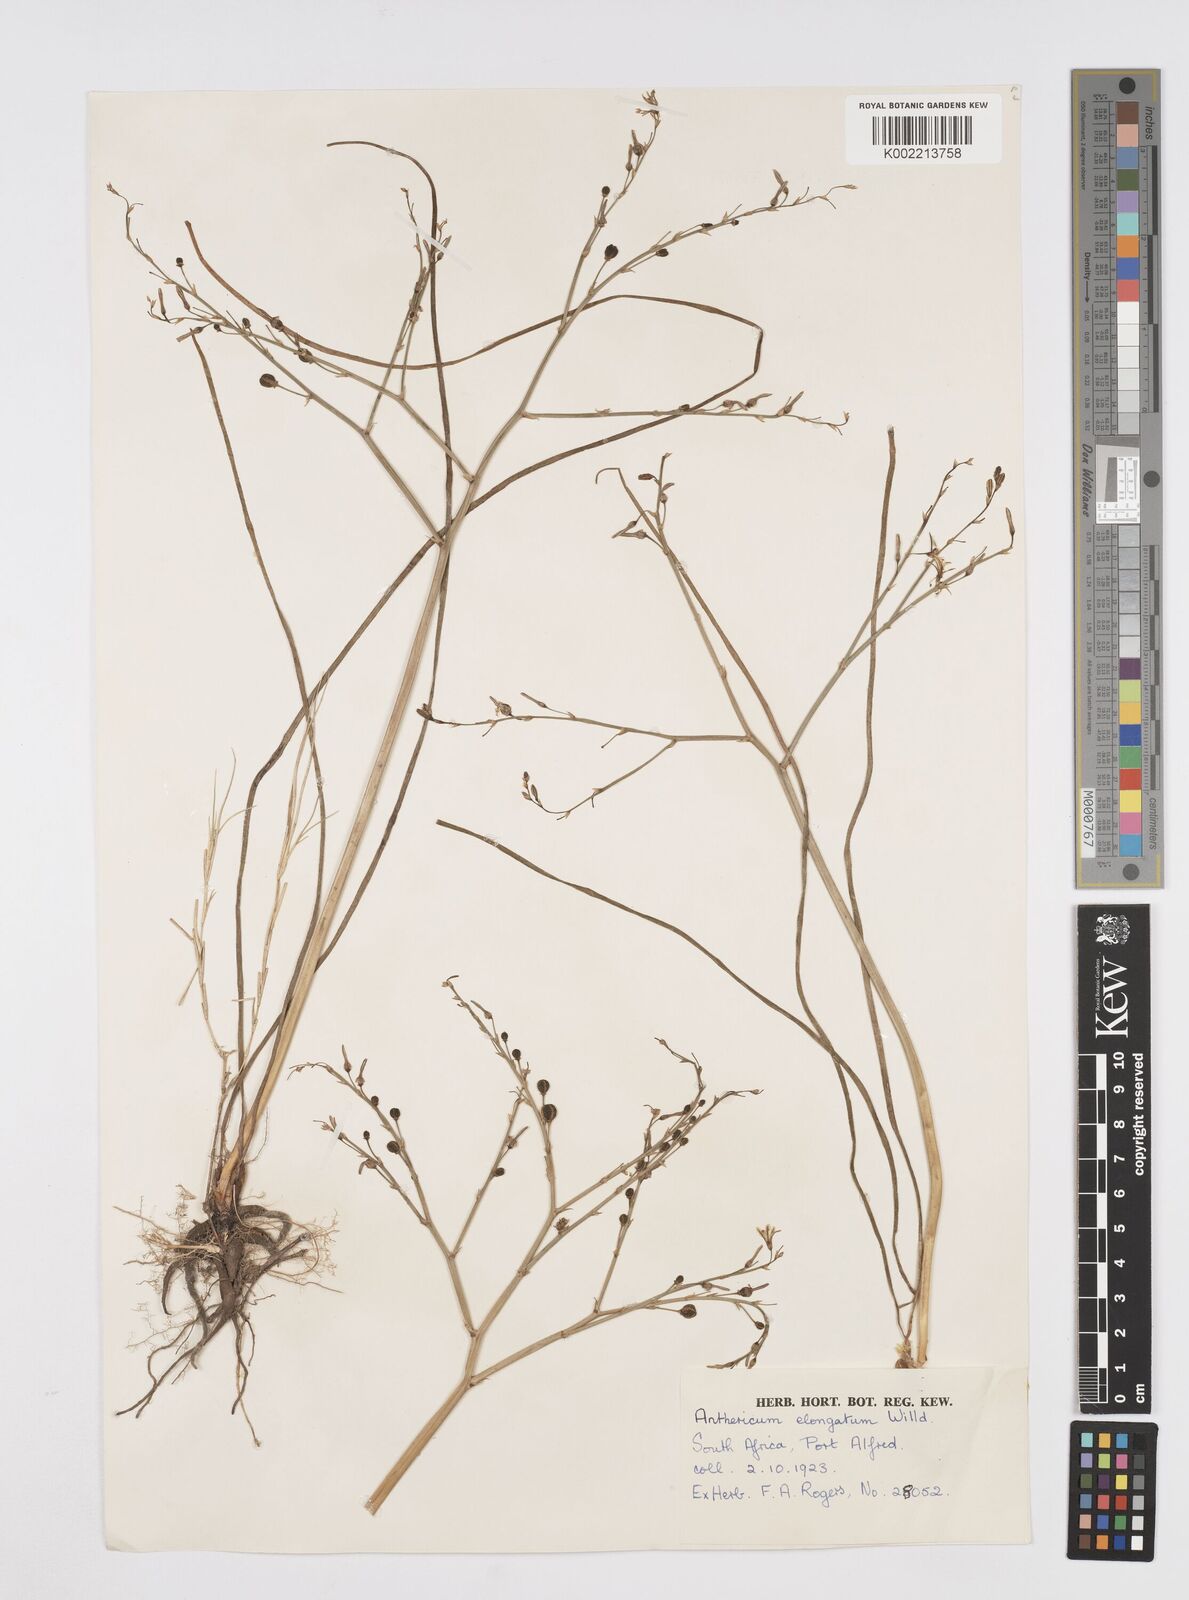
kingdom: Plantae
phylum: Tracheophyta
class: Liliopsida
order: Asparagales
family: Asphodelaceae
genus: Trachyandra
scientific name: Trachyandra revoluta
